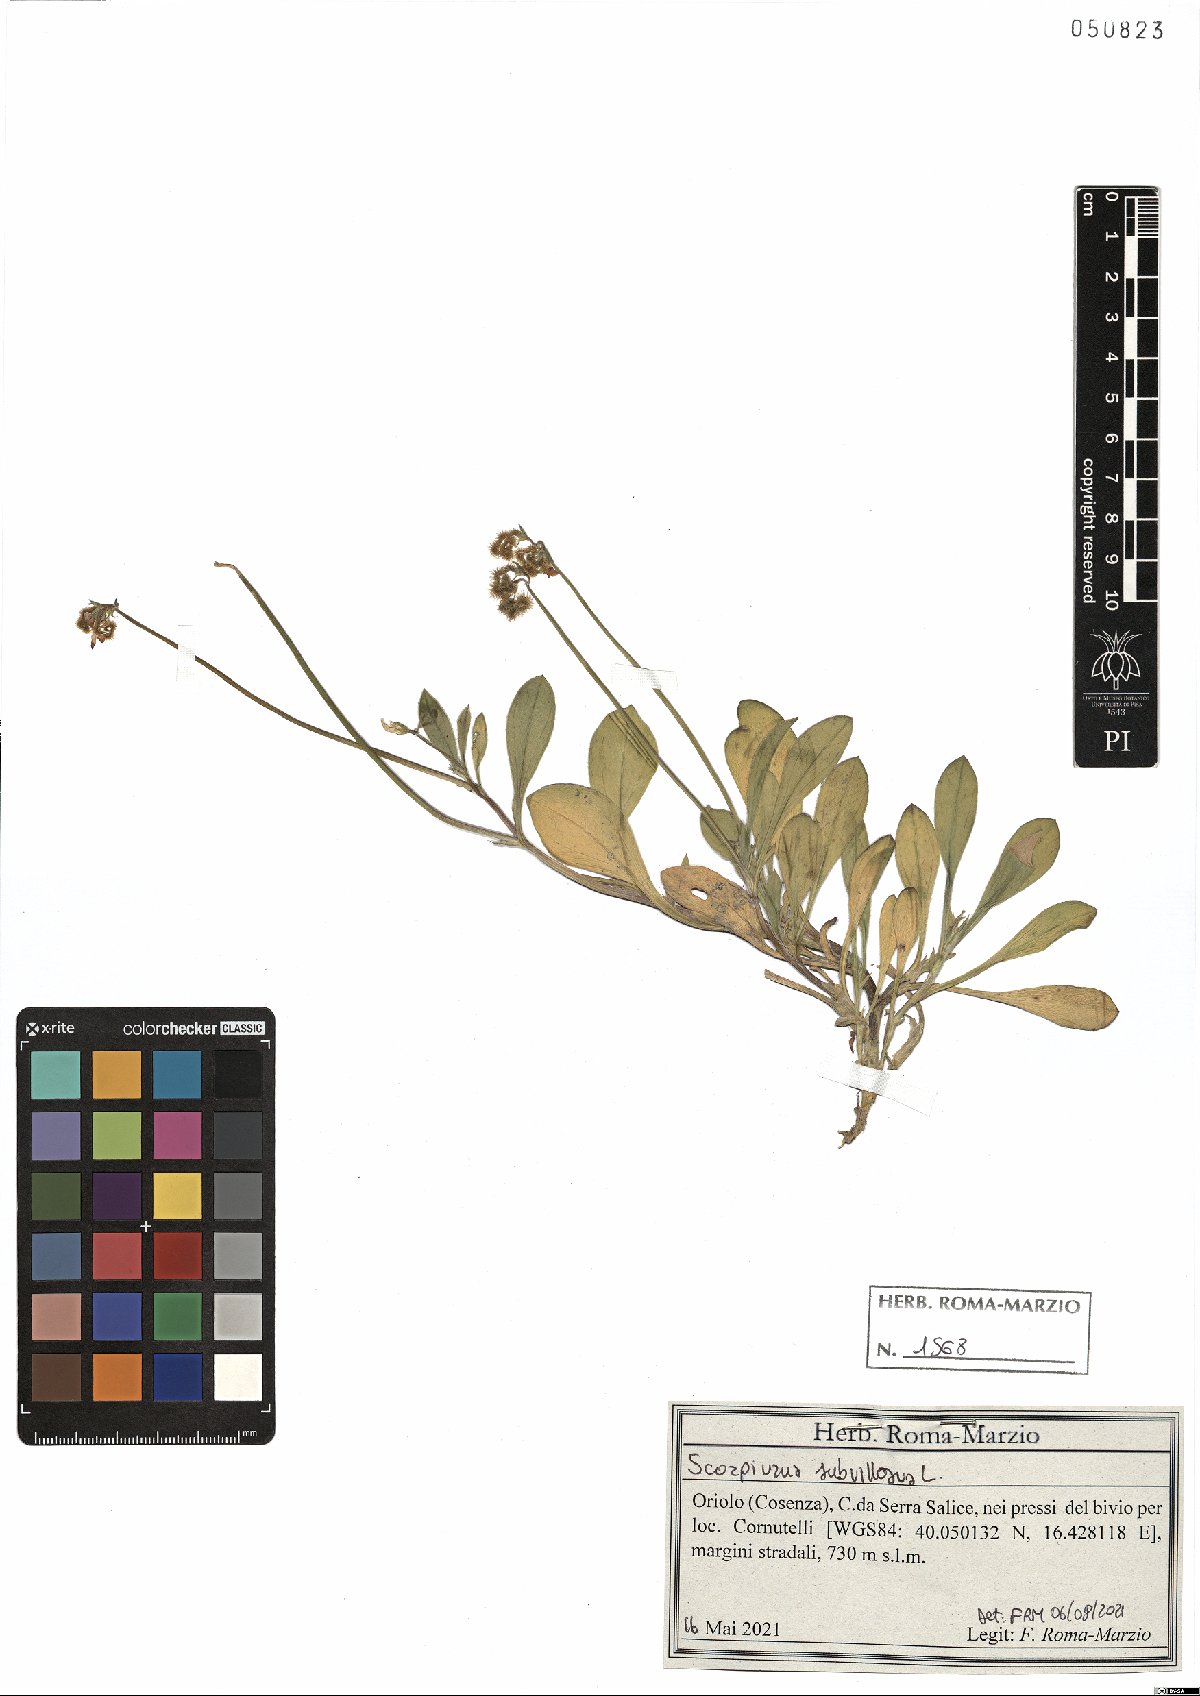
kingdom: Plantae
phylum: Tracheophyta
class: Magnoliopsida
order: Fabales
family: Fabaceae
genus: Scorpiurus
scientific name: Scorpiurus muricatus
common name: Caterpillar-plant
